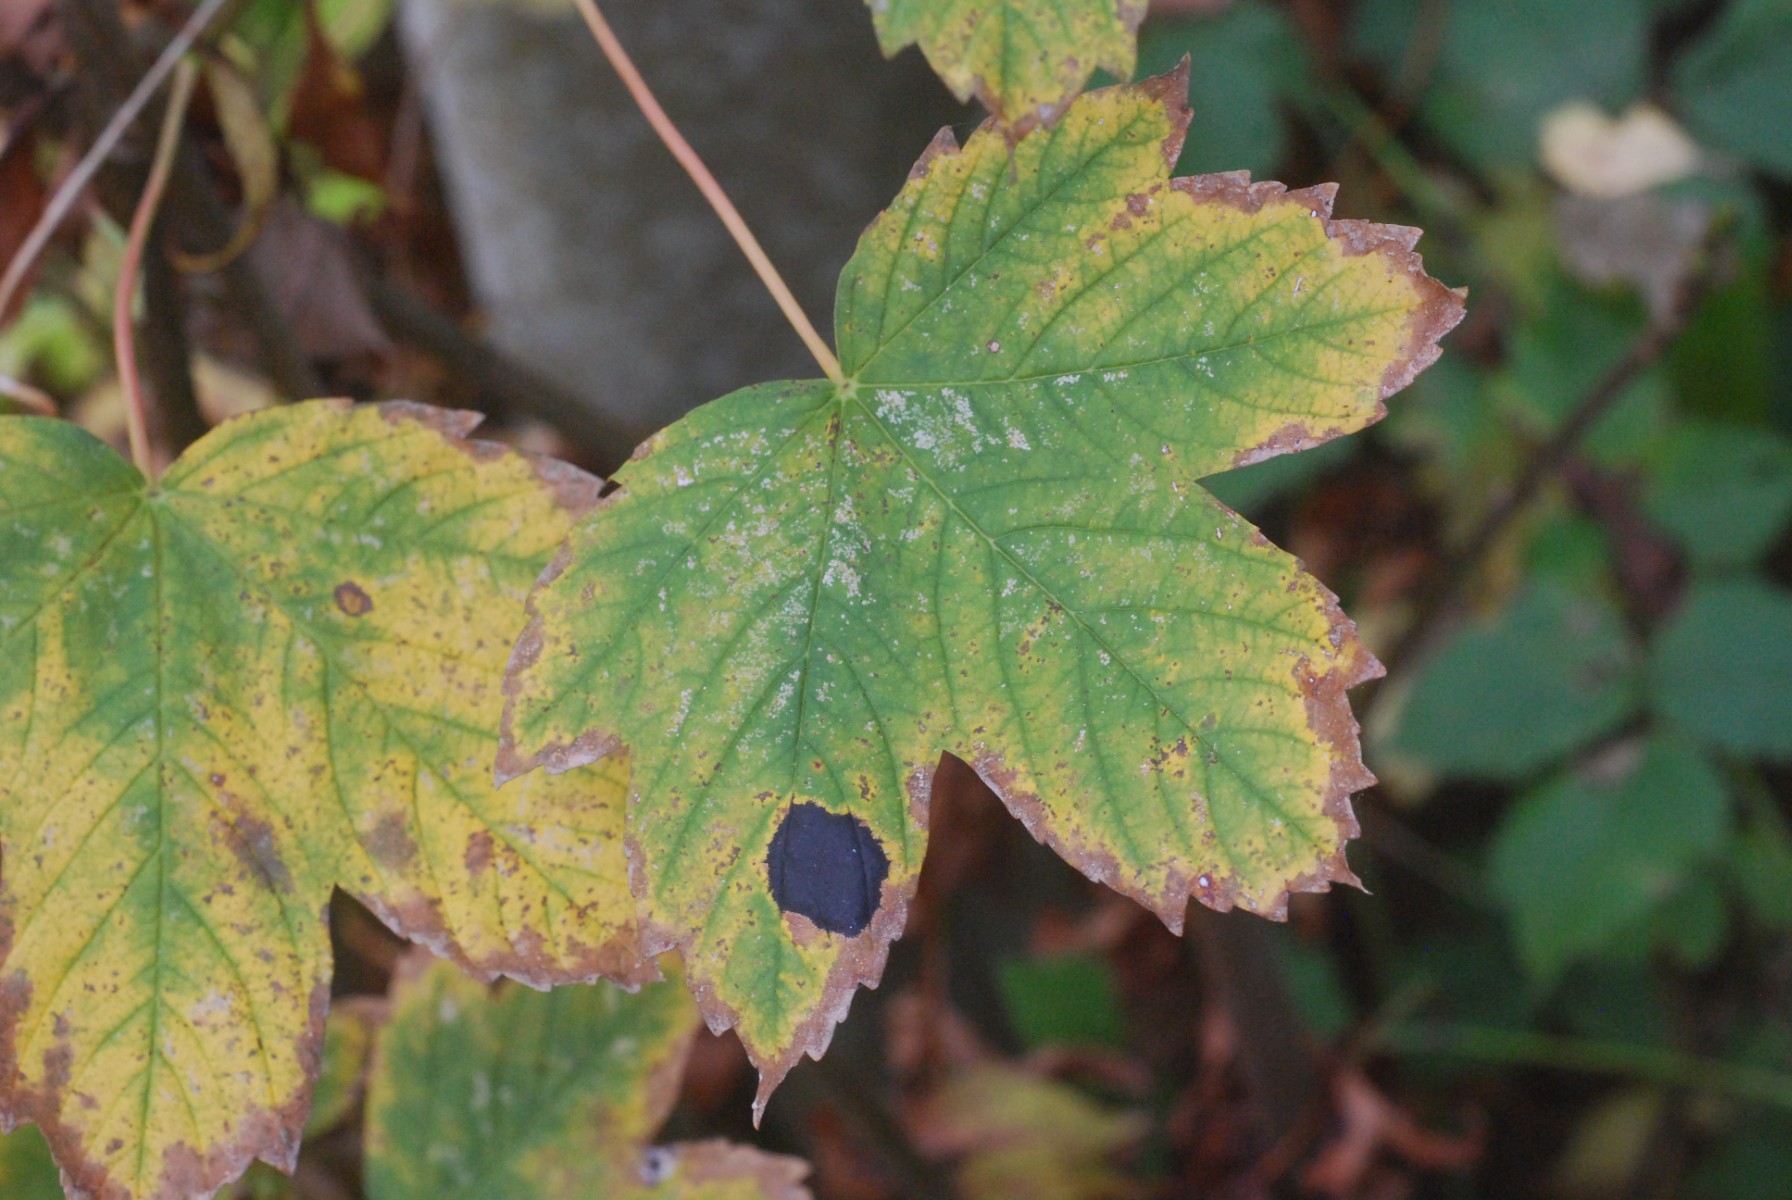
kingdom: Fungi
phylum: Ascomycota
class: Leotiomycetes
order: Rhytismatales
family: Rhytismataceae
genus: Rhytisma
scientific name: Rhytisma acerinum
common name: ahorn-rynkeplet
